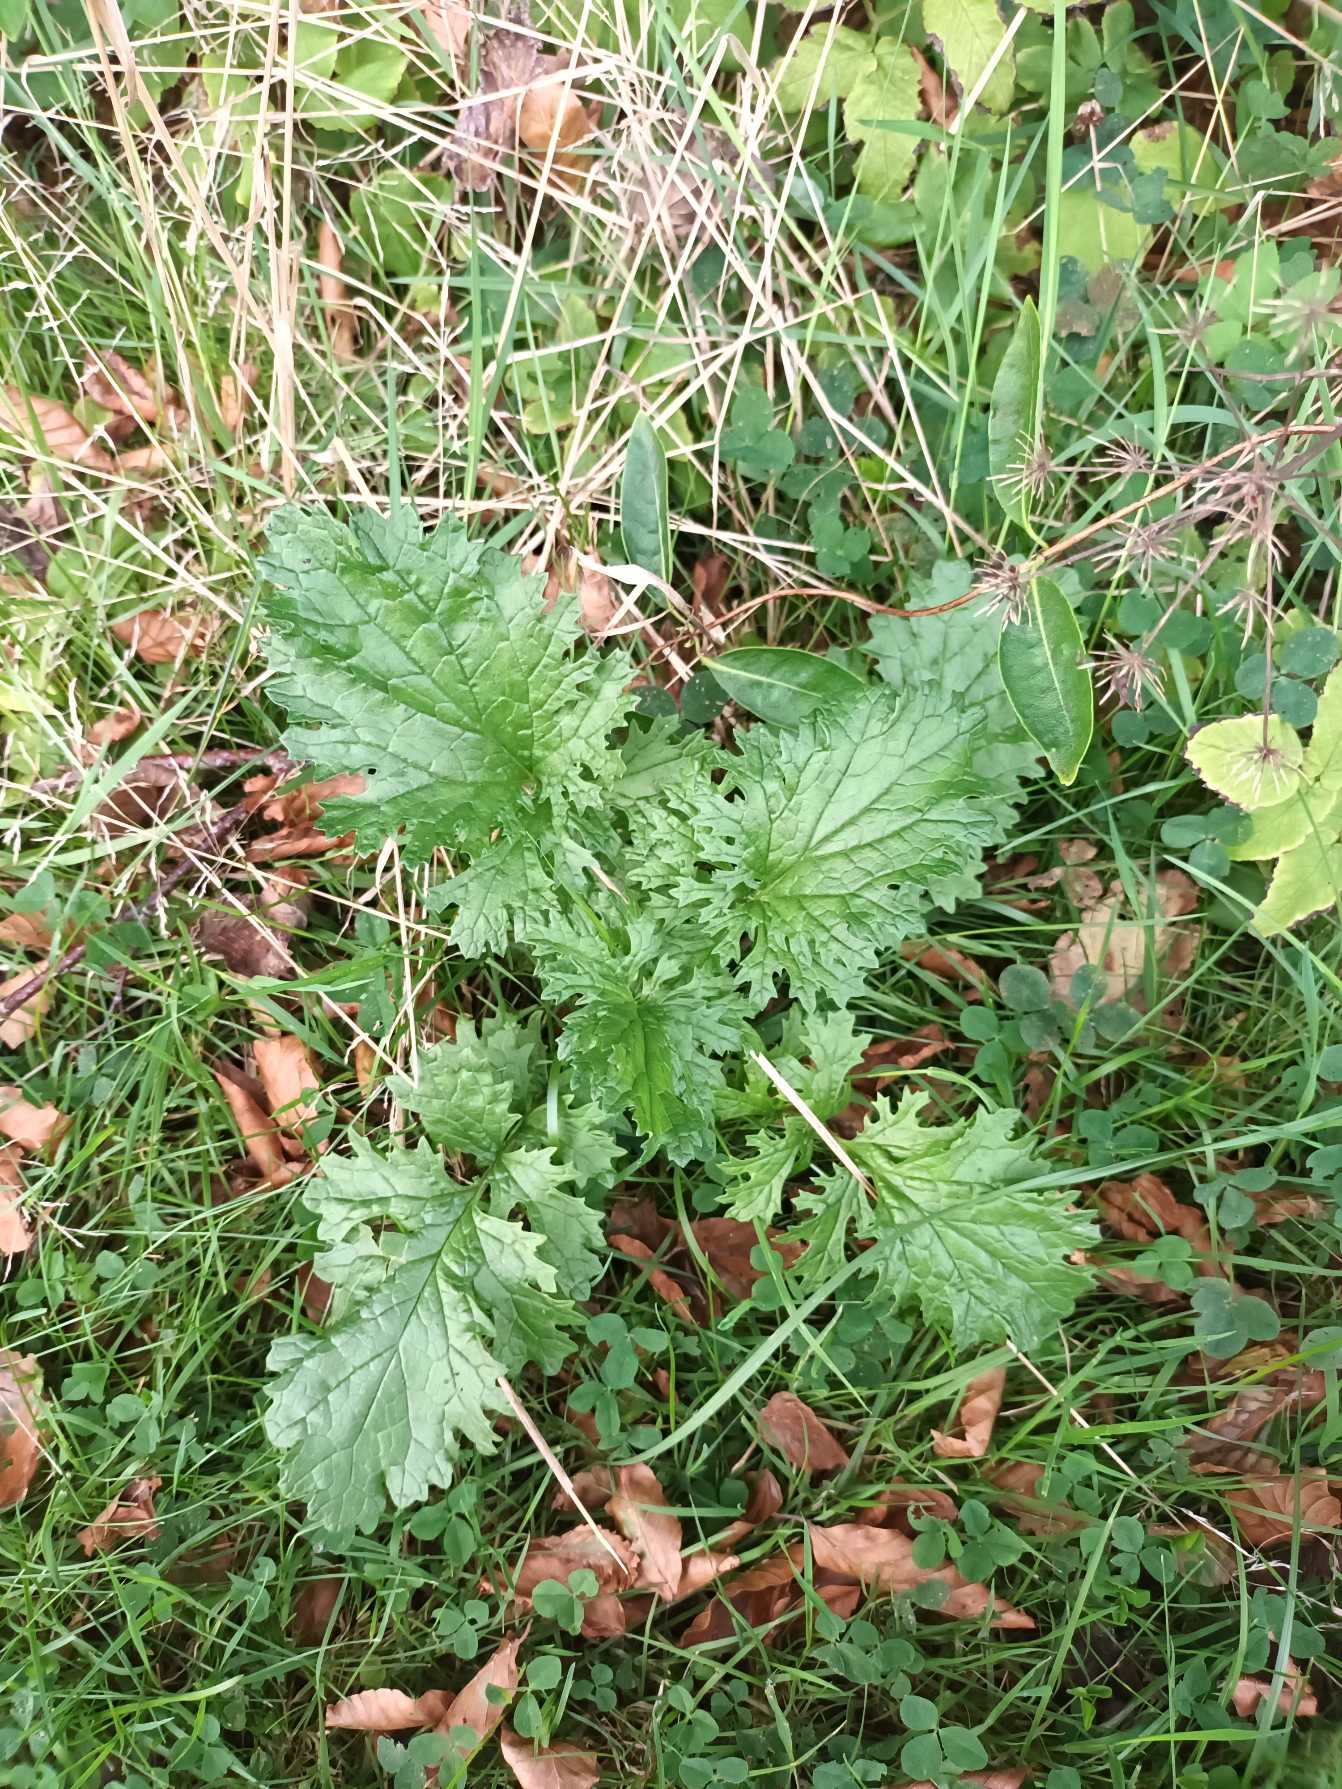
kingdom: Plantae
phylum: Tracheophyta
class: Magnoliopsida
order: Asterales
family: Asteraceae
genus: Jacobaea
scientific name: Jacobaea vulgaris
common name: Eng-brandbæger
